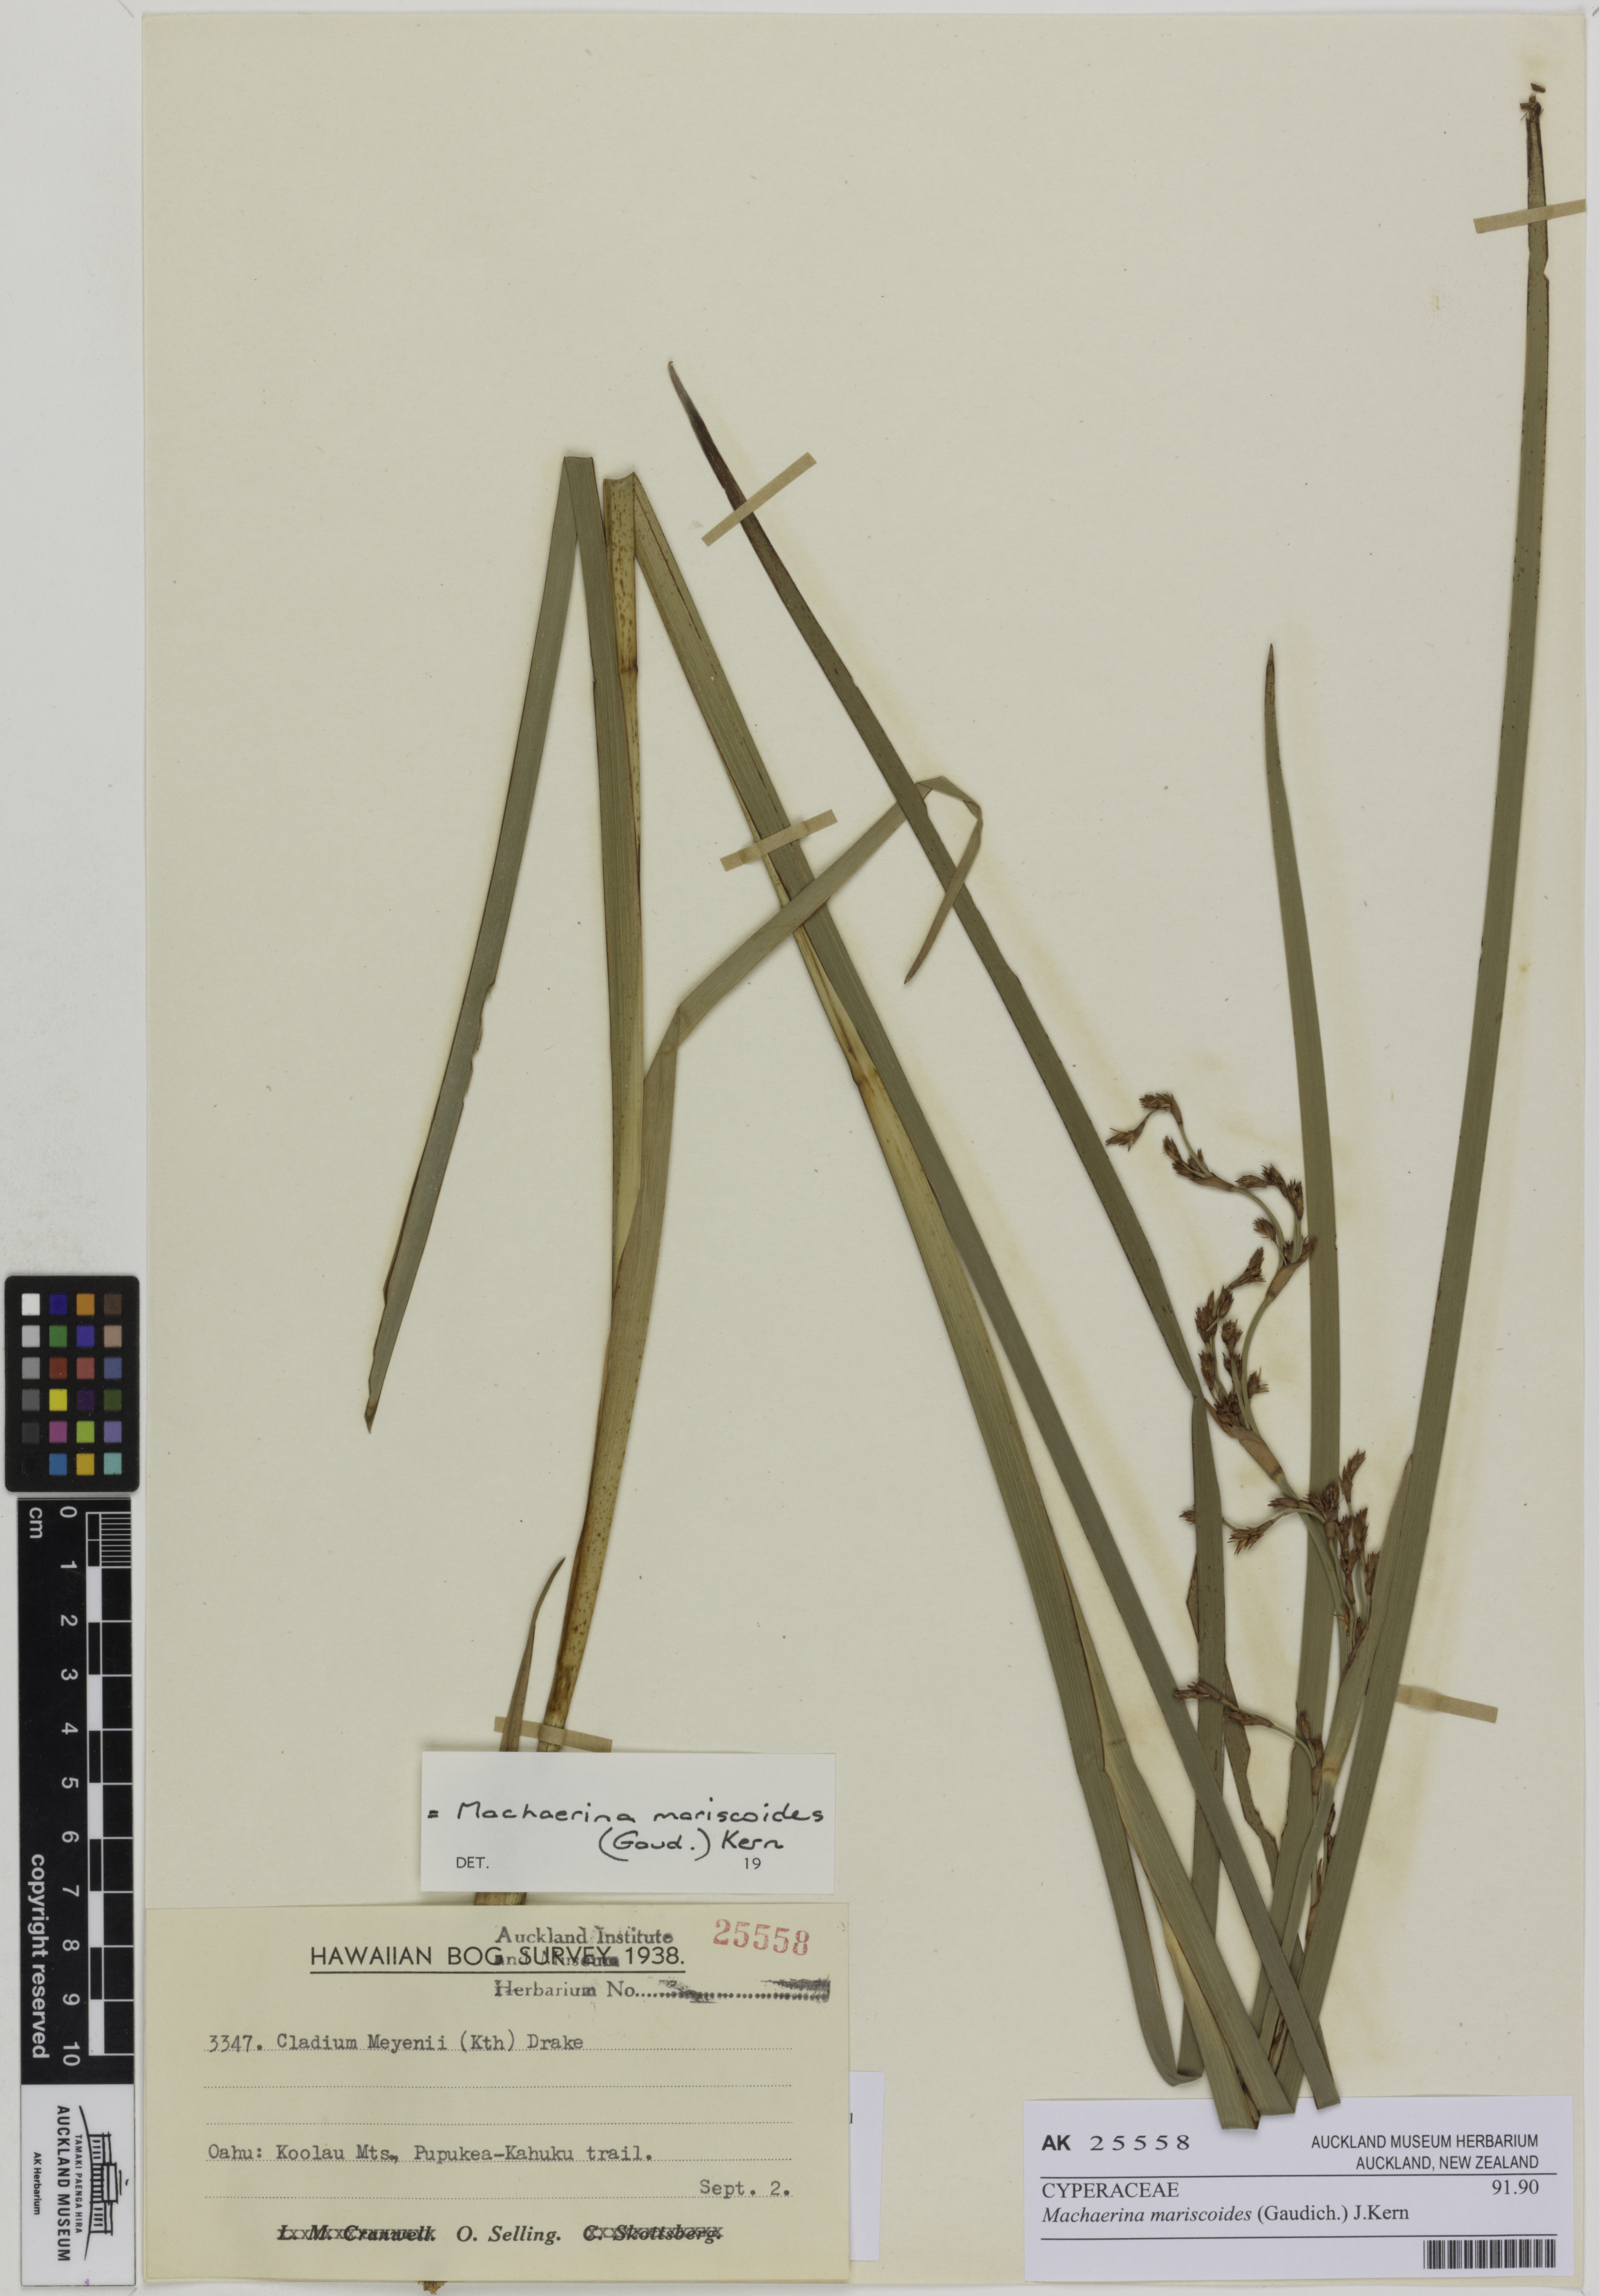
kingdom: Plantae
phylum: Tracheophyta
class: Liliopsida
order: Poales
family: Cyperaceae
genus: Machaerina
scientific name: Machaerina mariscoides
